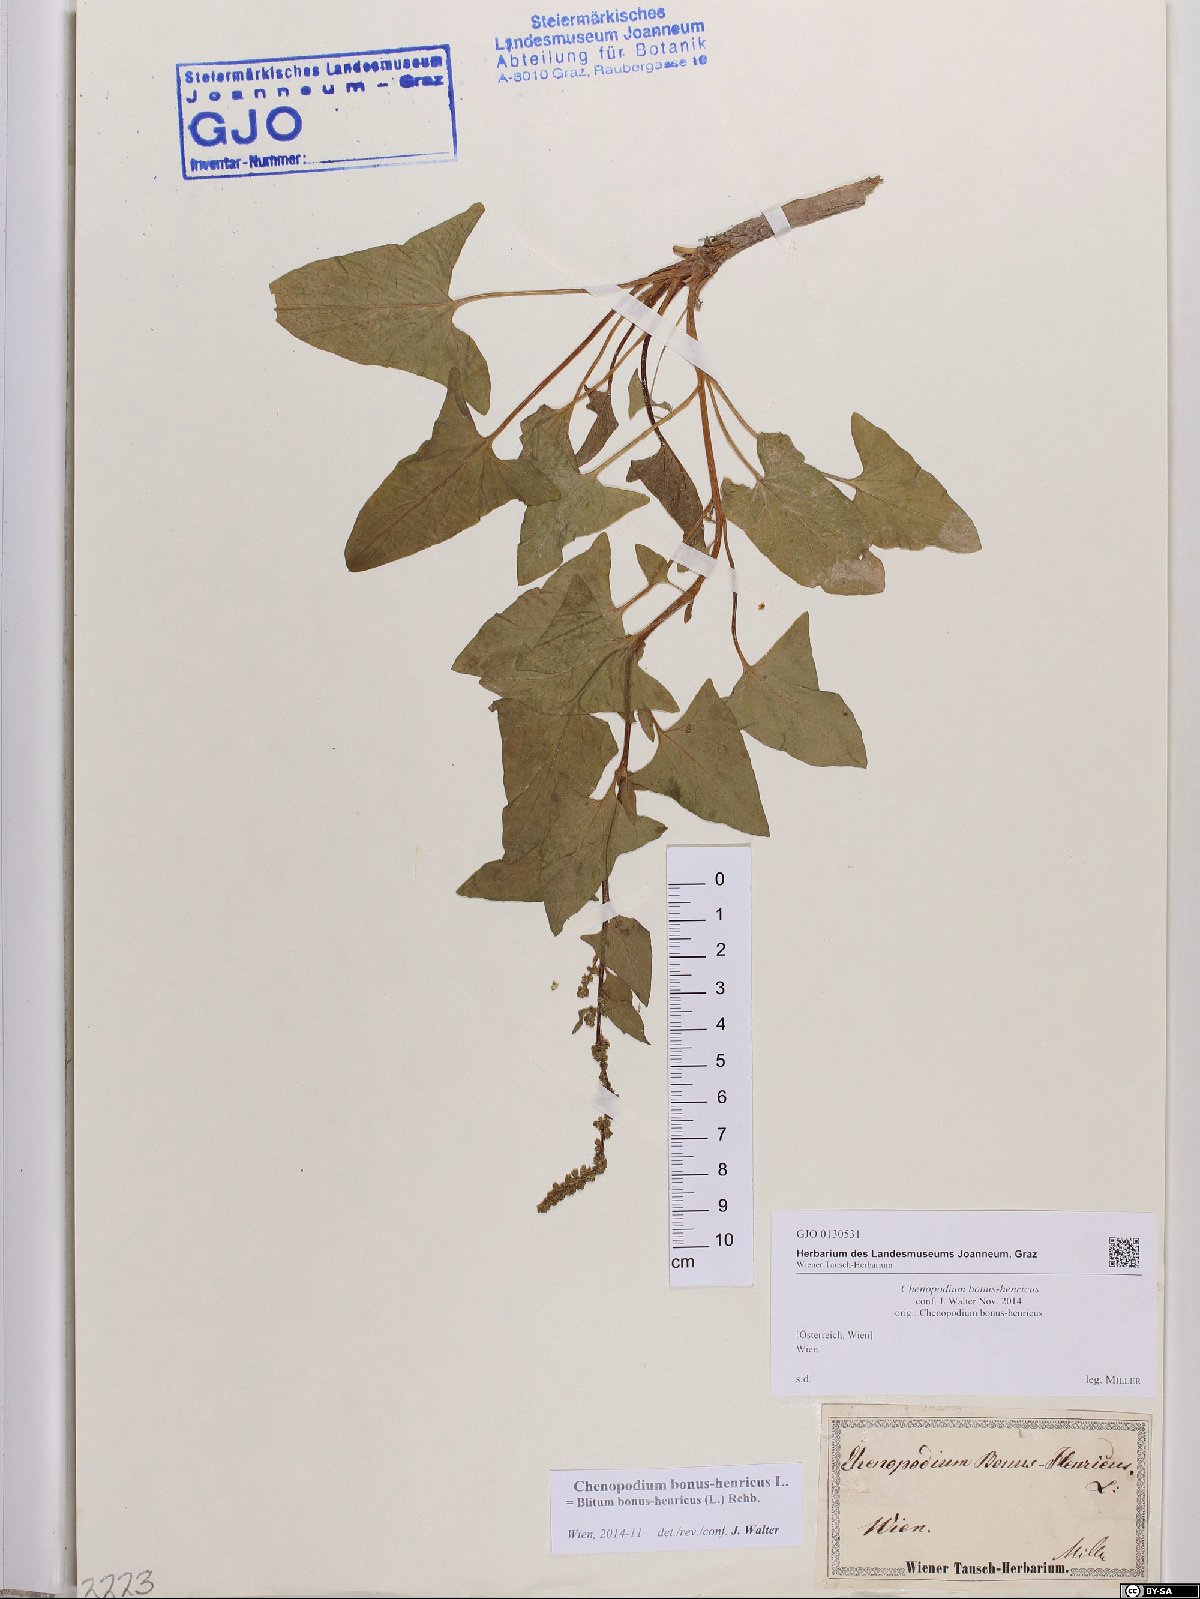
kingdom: Plantae
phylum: Tracheophyta
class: Magnoliopsida
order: Caryophyllales
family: Amaranthaceae
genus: Blitum
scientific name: Blitum bonus-henricus
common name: Good king henry
